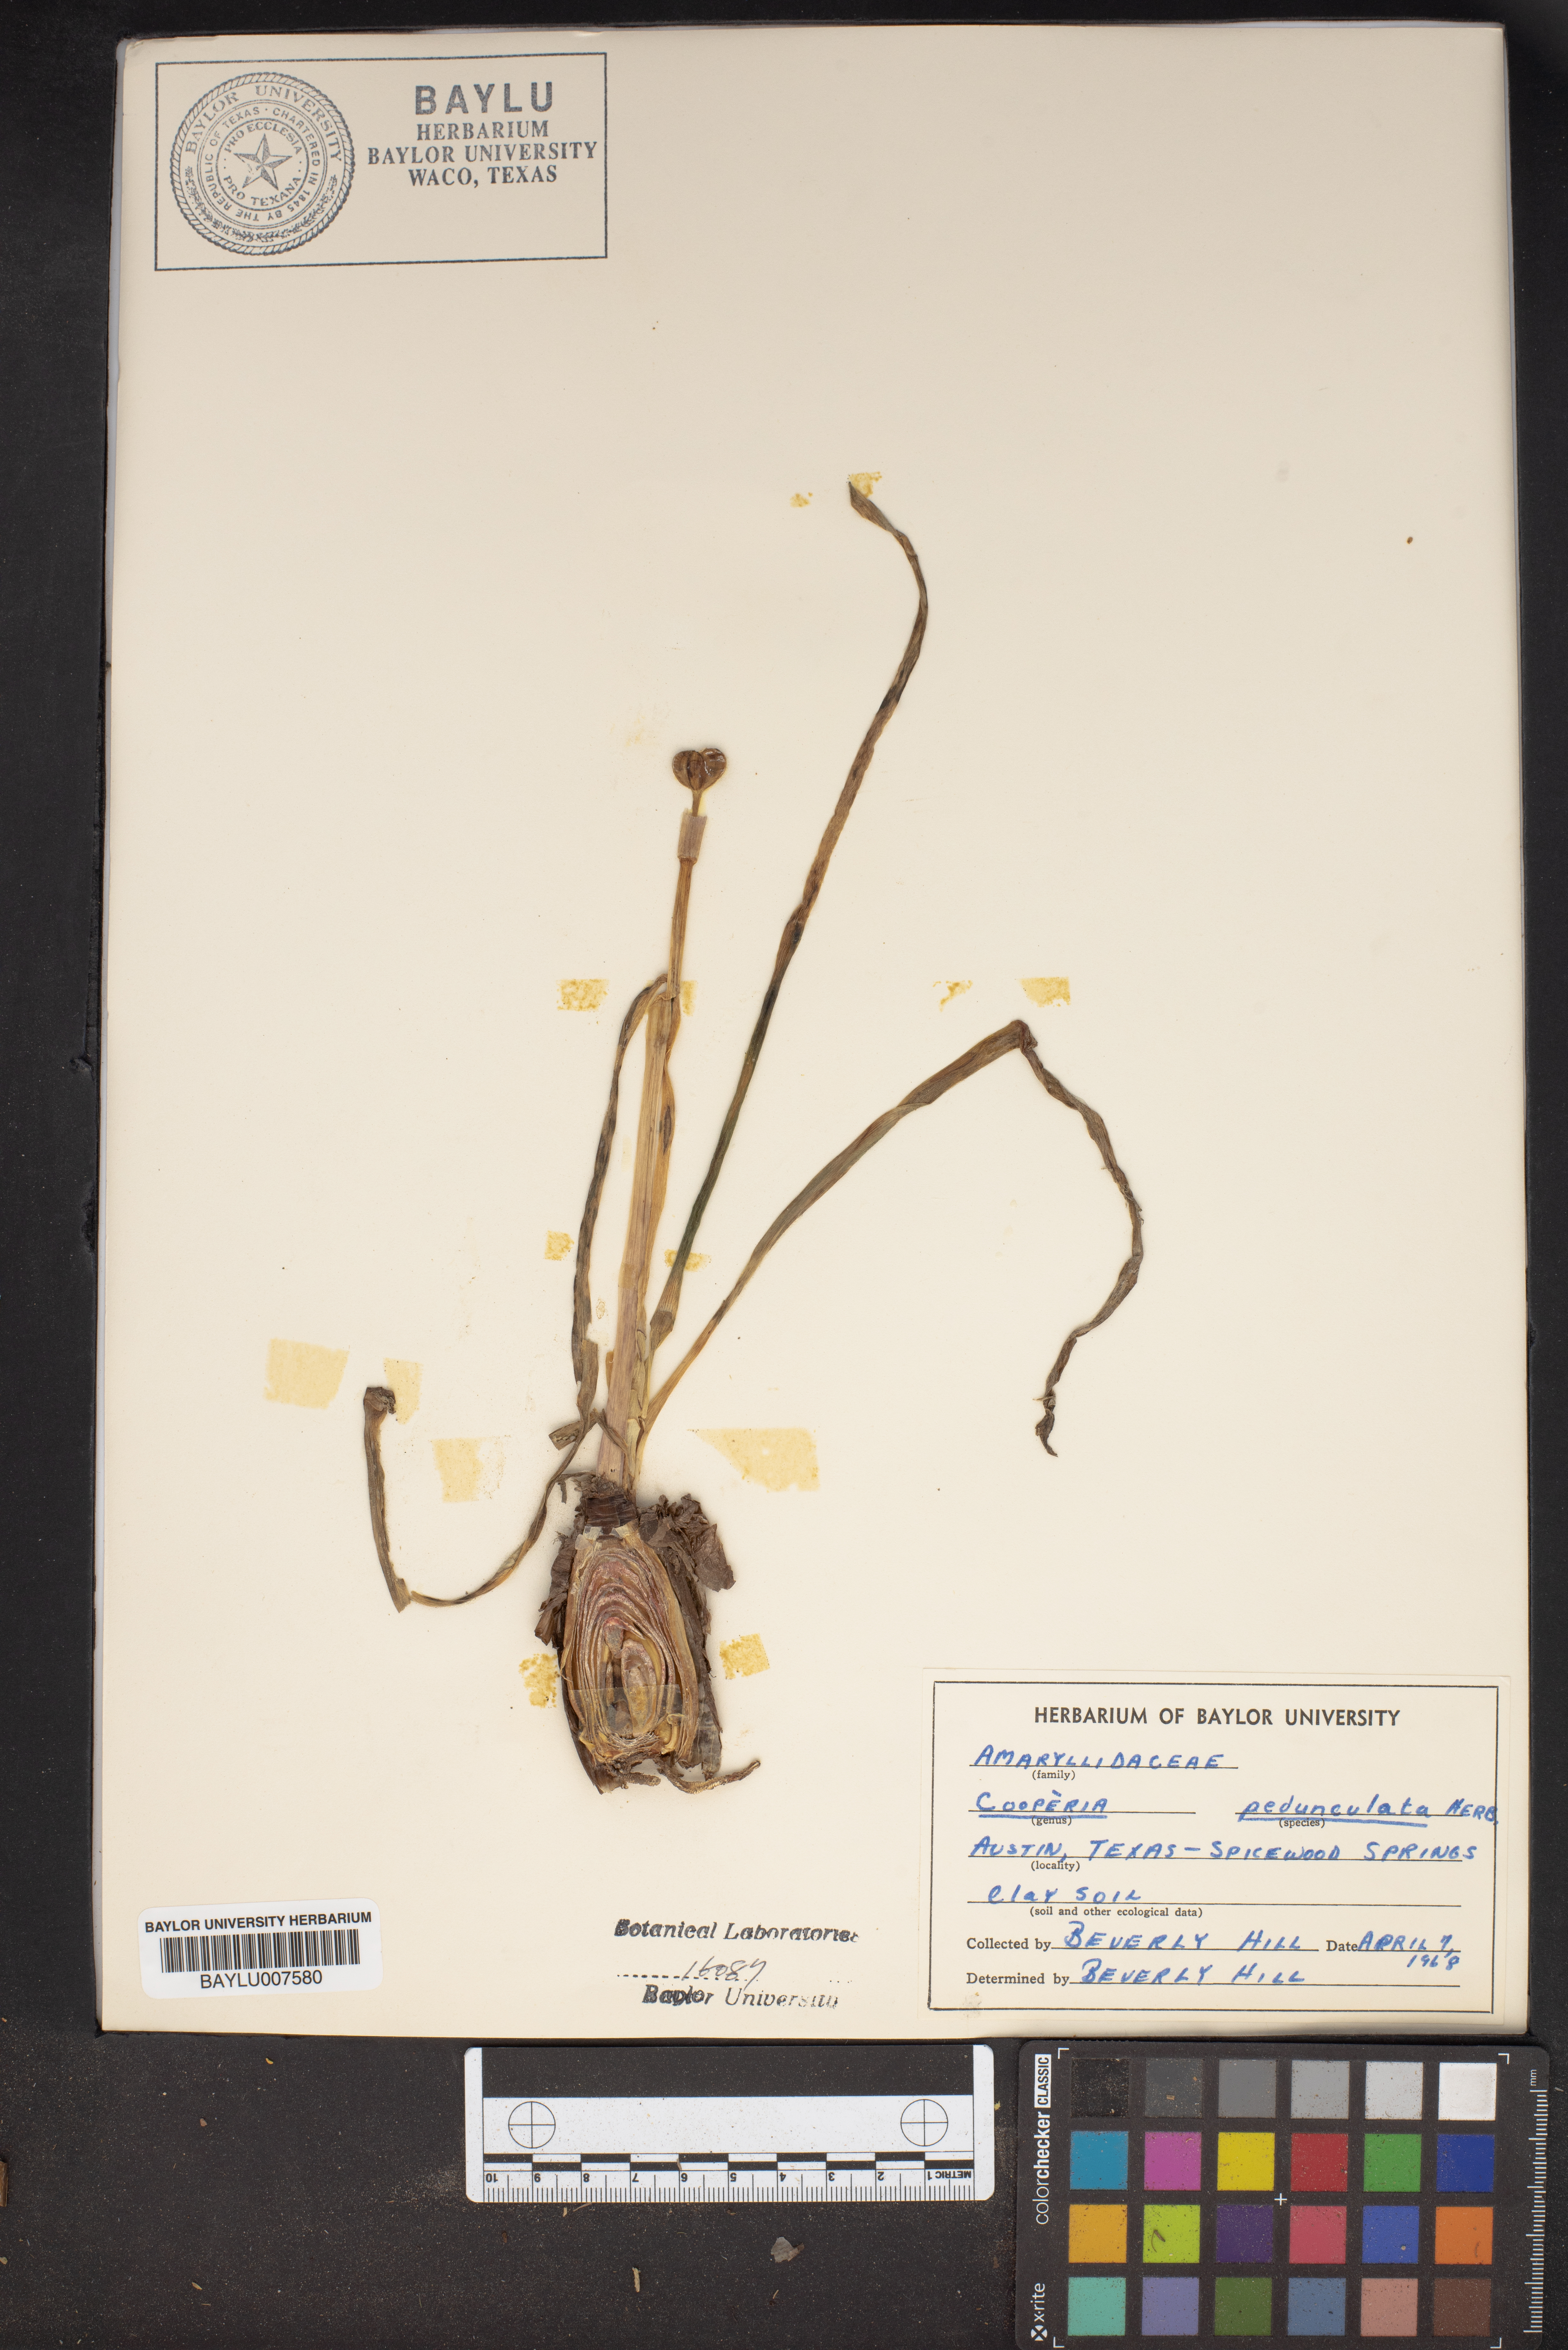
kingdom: Plantae
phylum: Tracheophyta
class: Liliopsida
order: Asparagales
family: Amaryllidaceae
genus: Zephyranthes
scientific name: Zephyranthes drummondii
